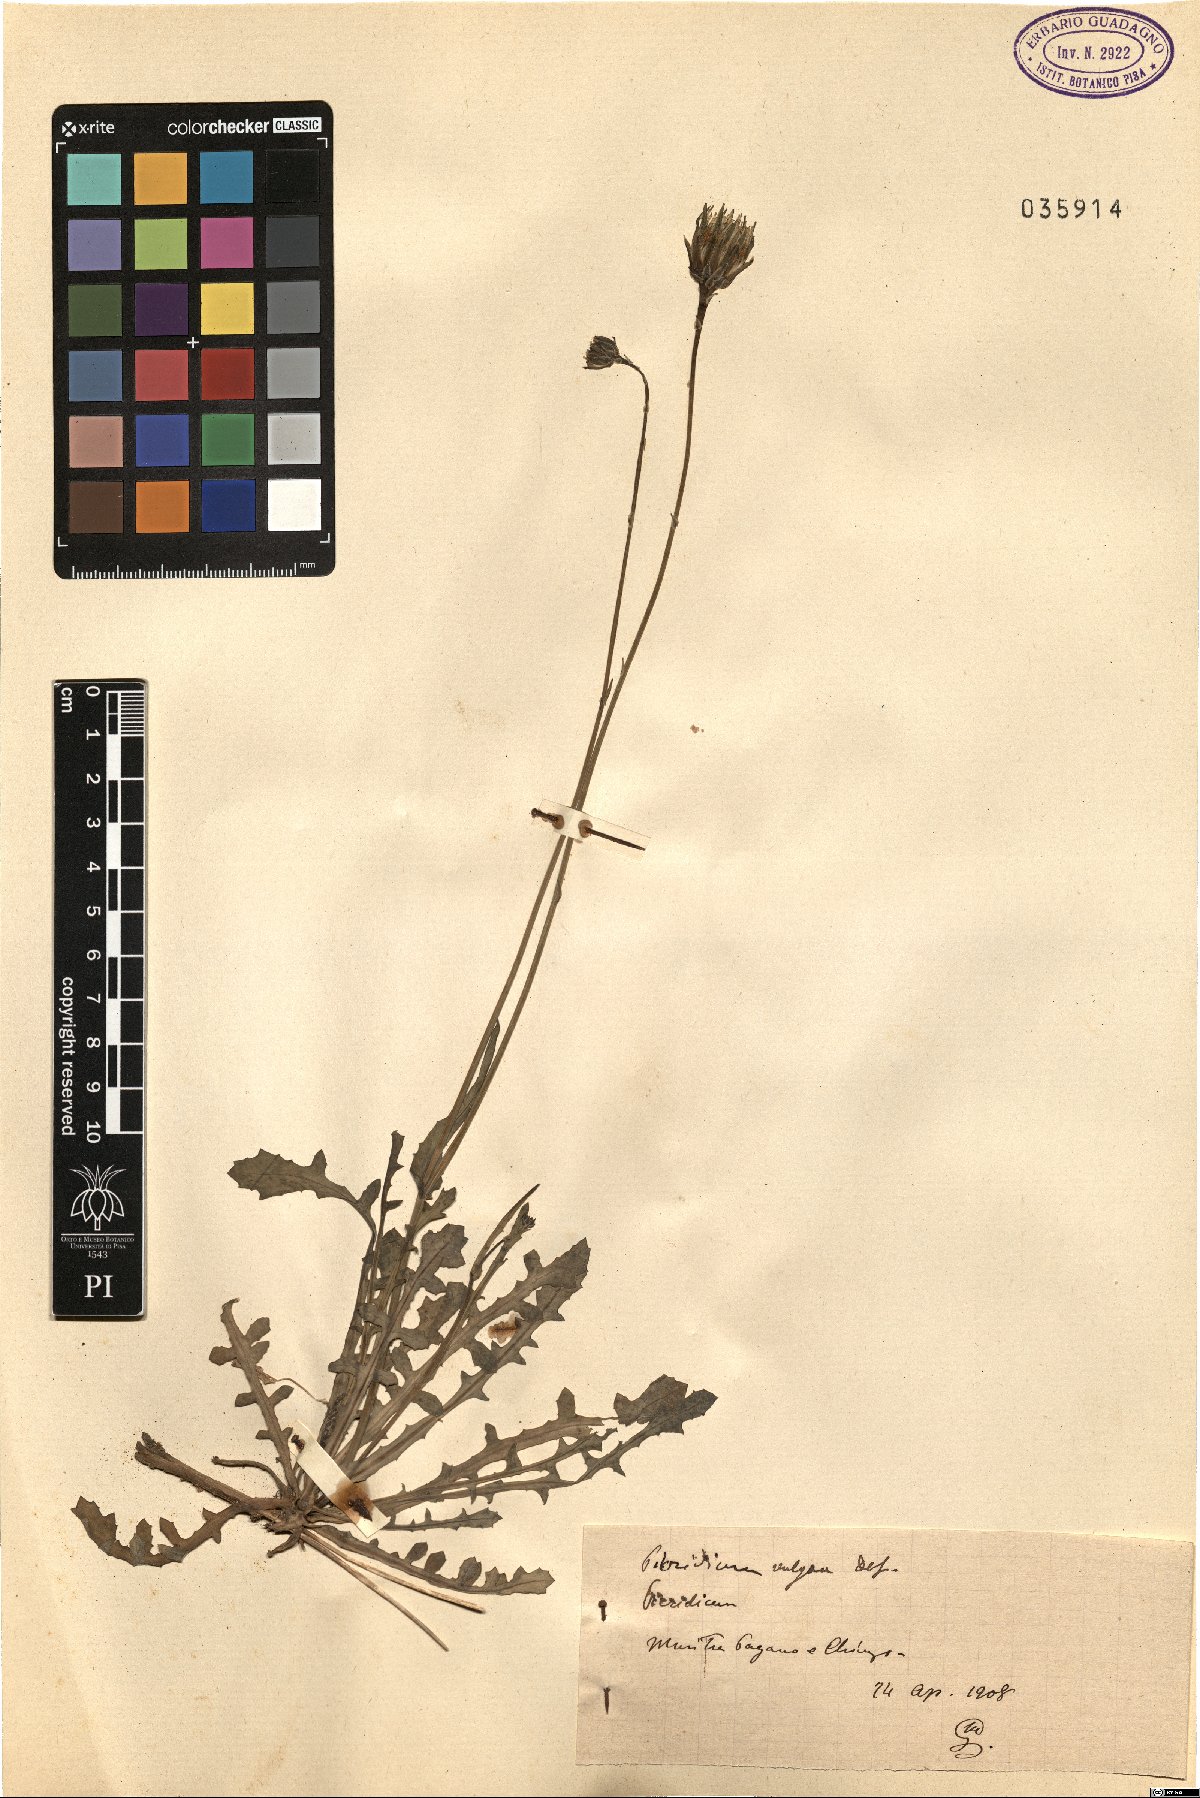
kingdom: Plantae
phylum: Tracheophyta
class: Magnoliopsida
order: Asterales
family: Asteraceae
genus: Reichardia
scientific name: Reichardia picroides
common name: Common brighteyes
